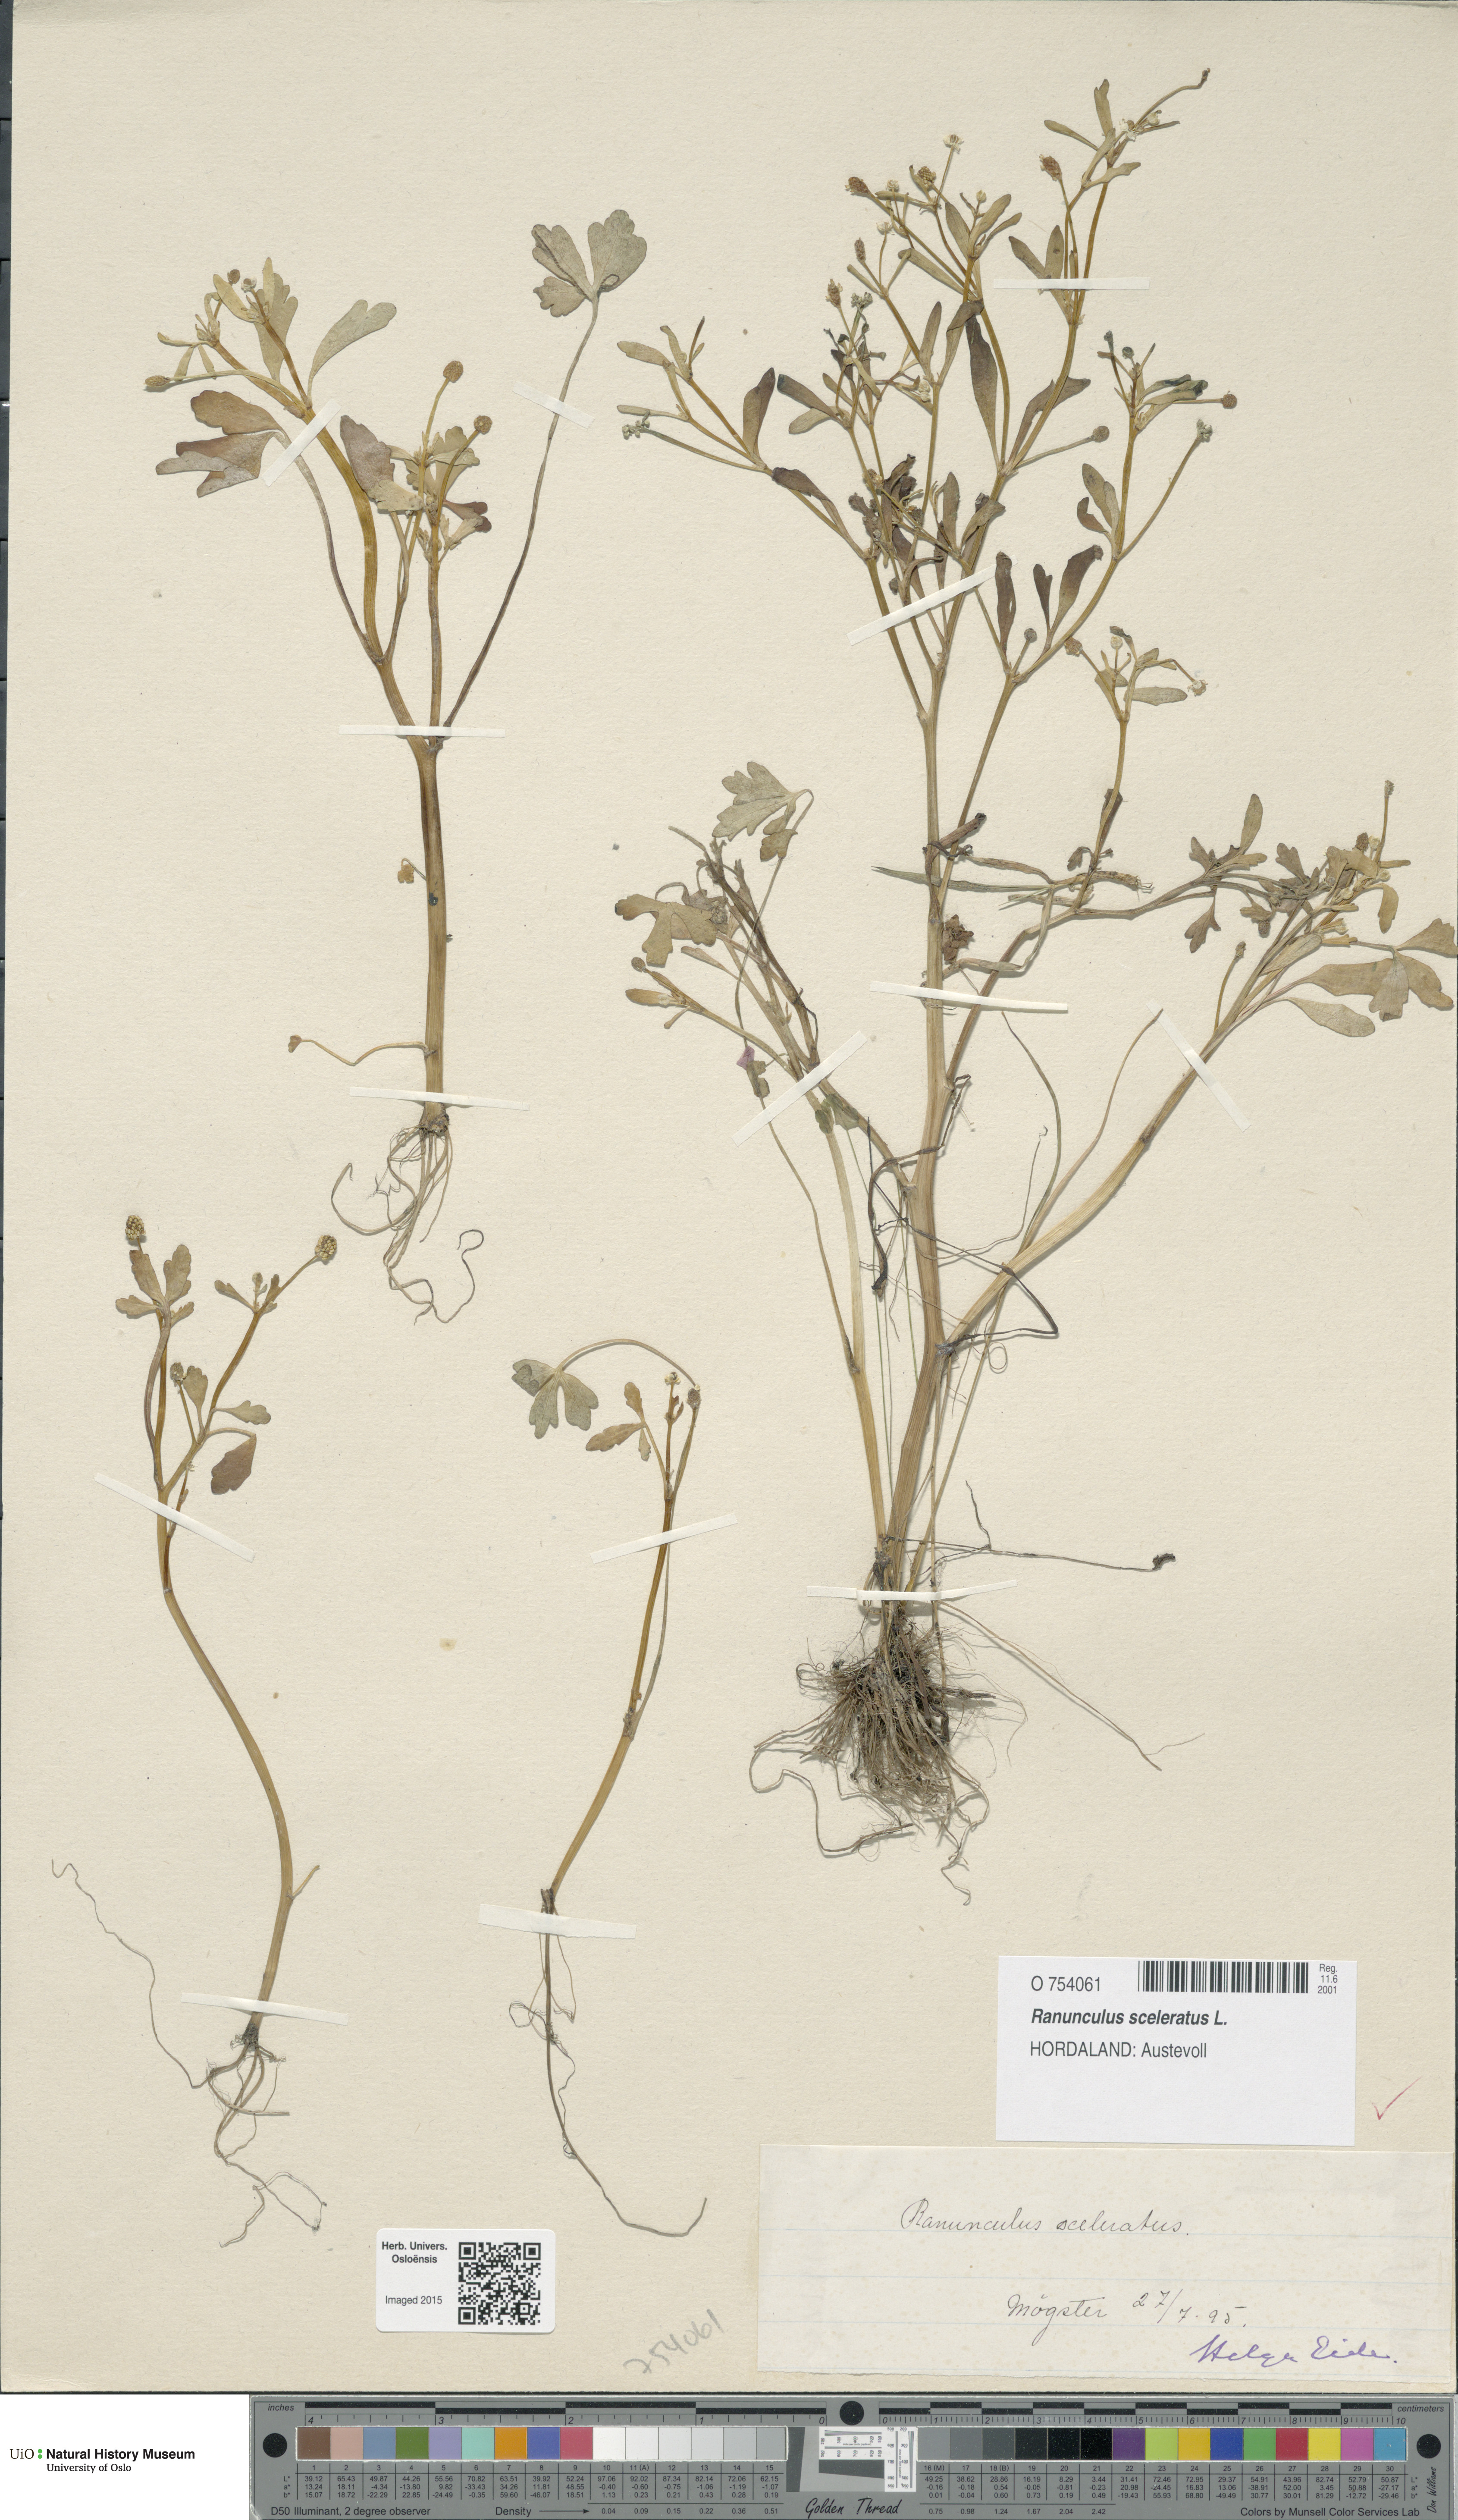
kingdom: Plantae
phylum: Tracheophyta
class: Magnoliopsida
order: Ranunculales
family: Ranunculaceae
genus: Ranunculus
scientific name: Ranunculus sceleratus
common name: Celery-leaved buttercup
